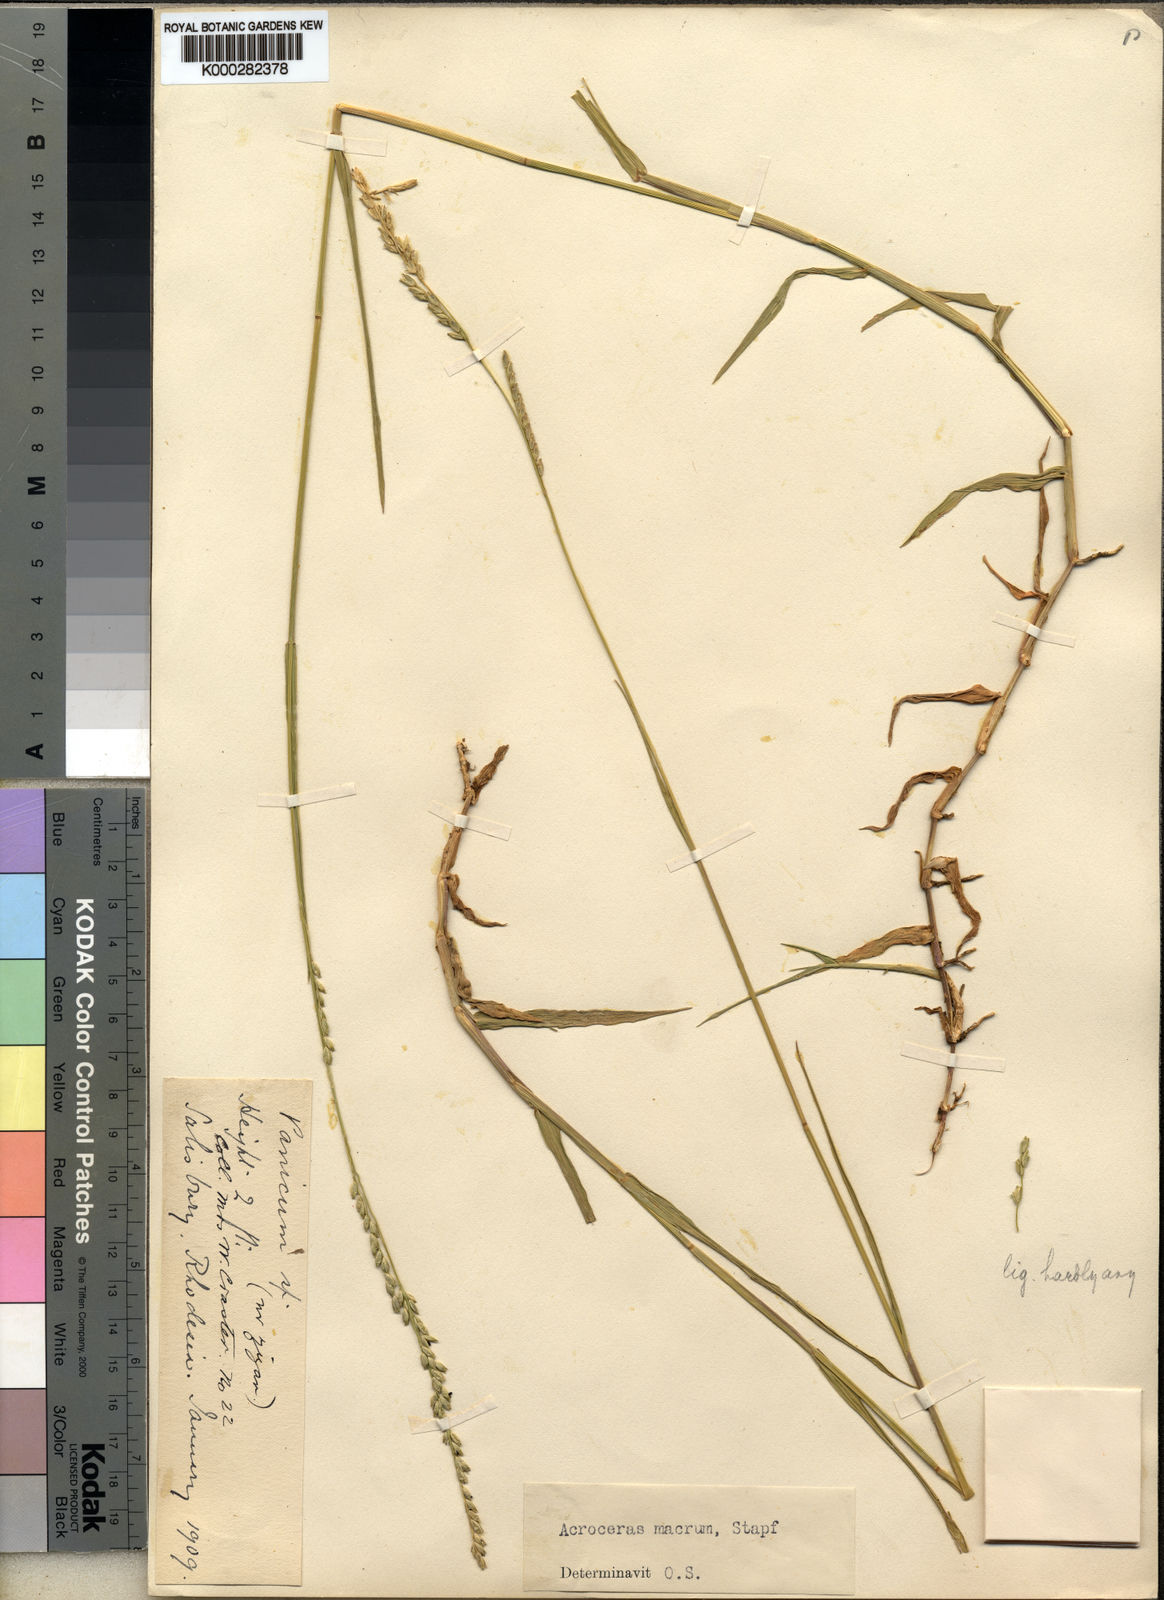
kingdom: Plantae
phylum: Tracheophyta
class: Liliopsida
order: Poales
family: Poaceae
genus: Acroceras
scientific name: Acroceras macrum
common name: Nyl grass
